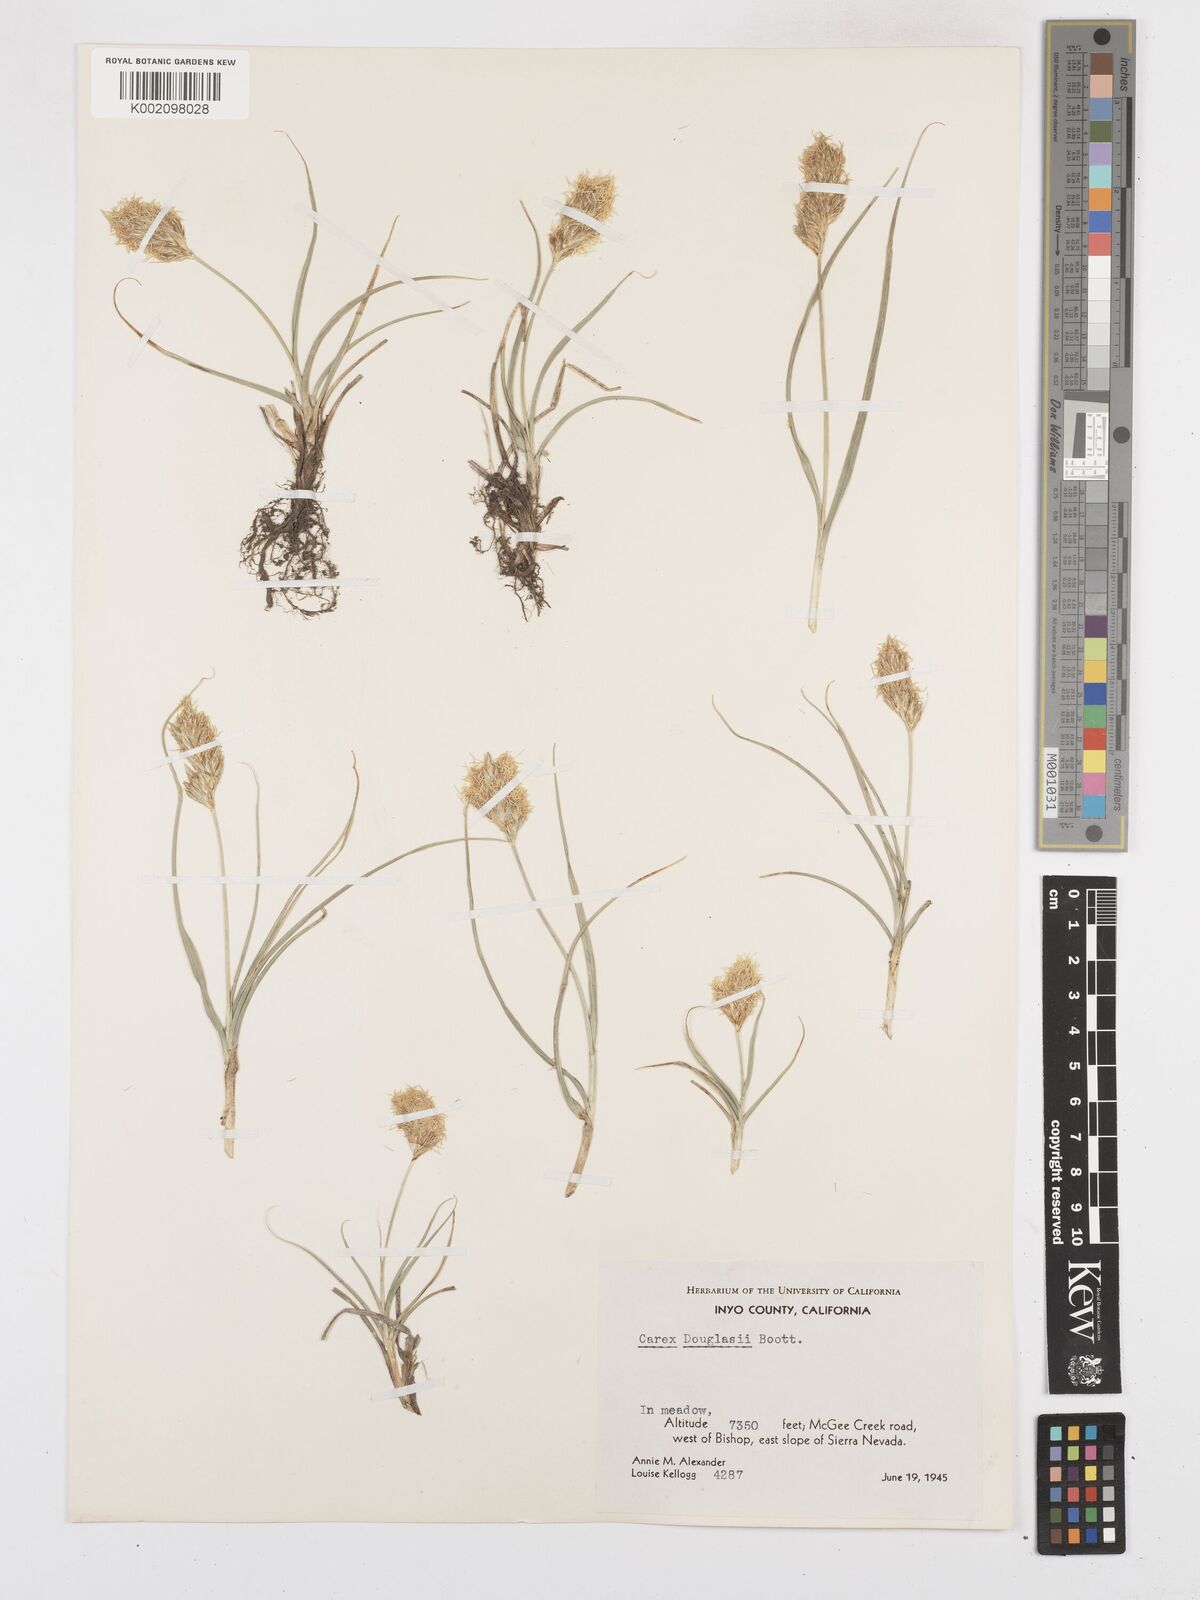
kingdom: Plantae
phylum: Tracheophyta
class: Liliopsida
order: Poales
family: Cyperaceae
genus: Carex
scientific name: Carex douglasii
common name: Douglas' sedge
